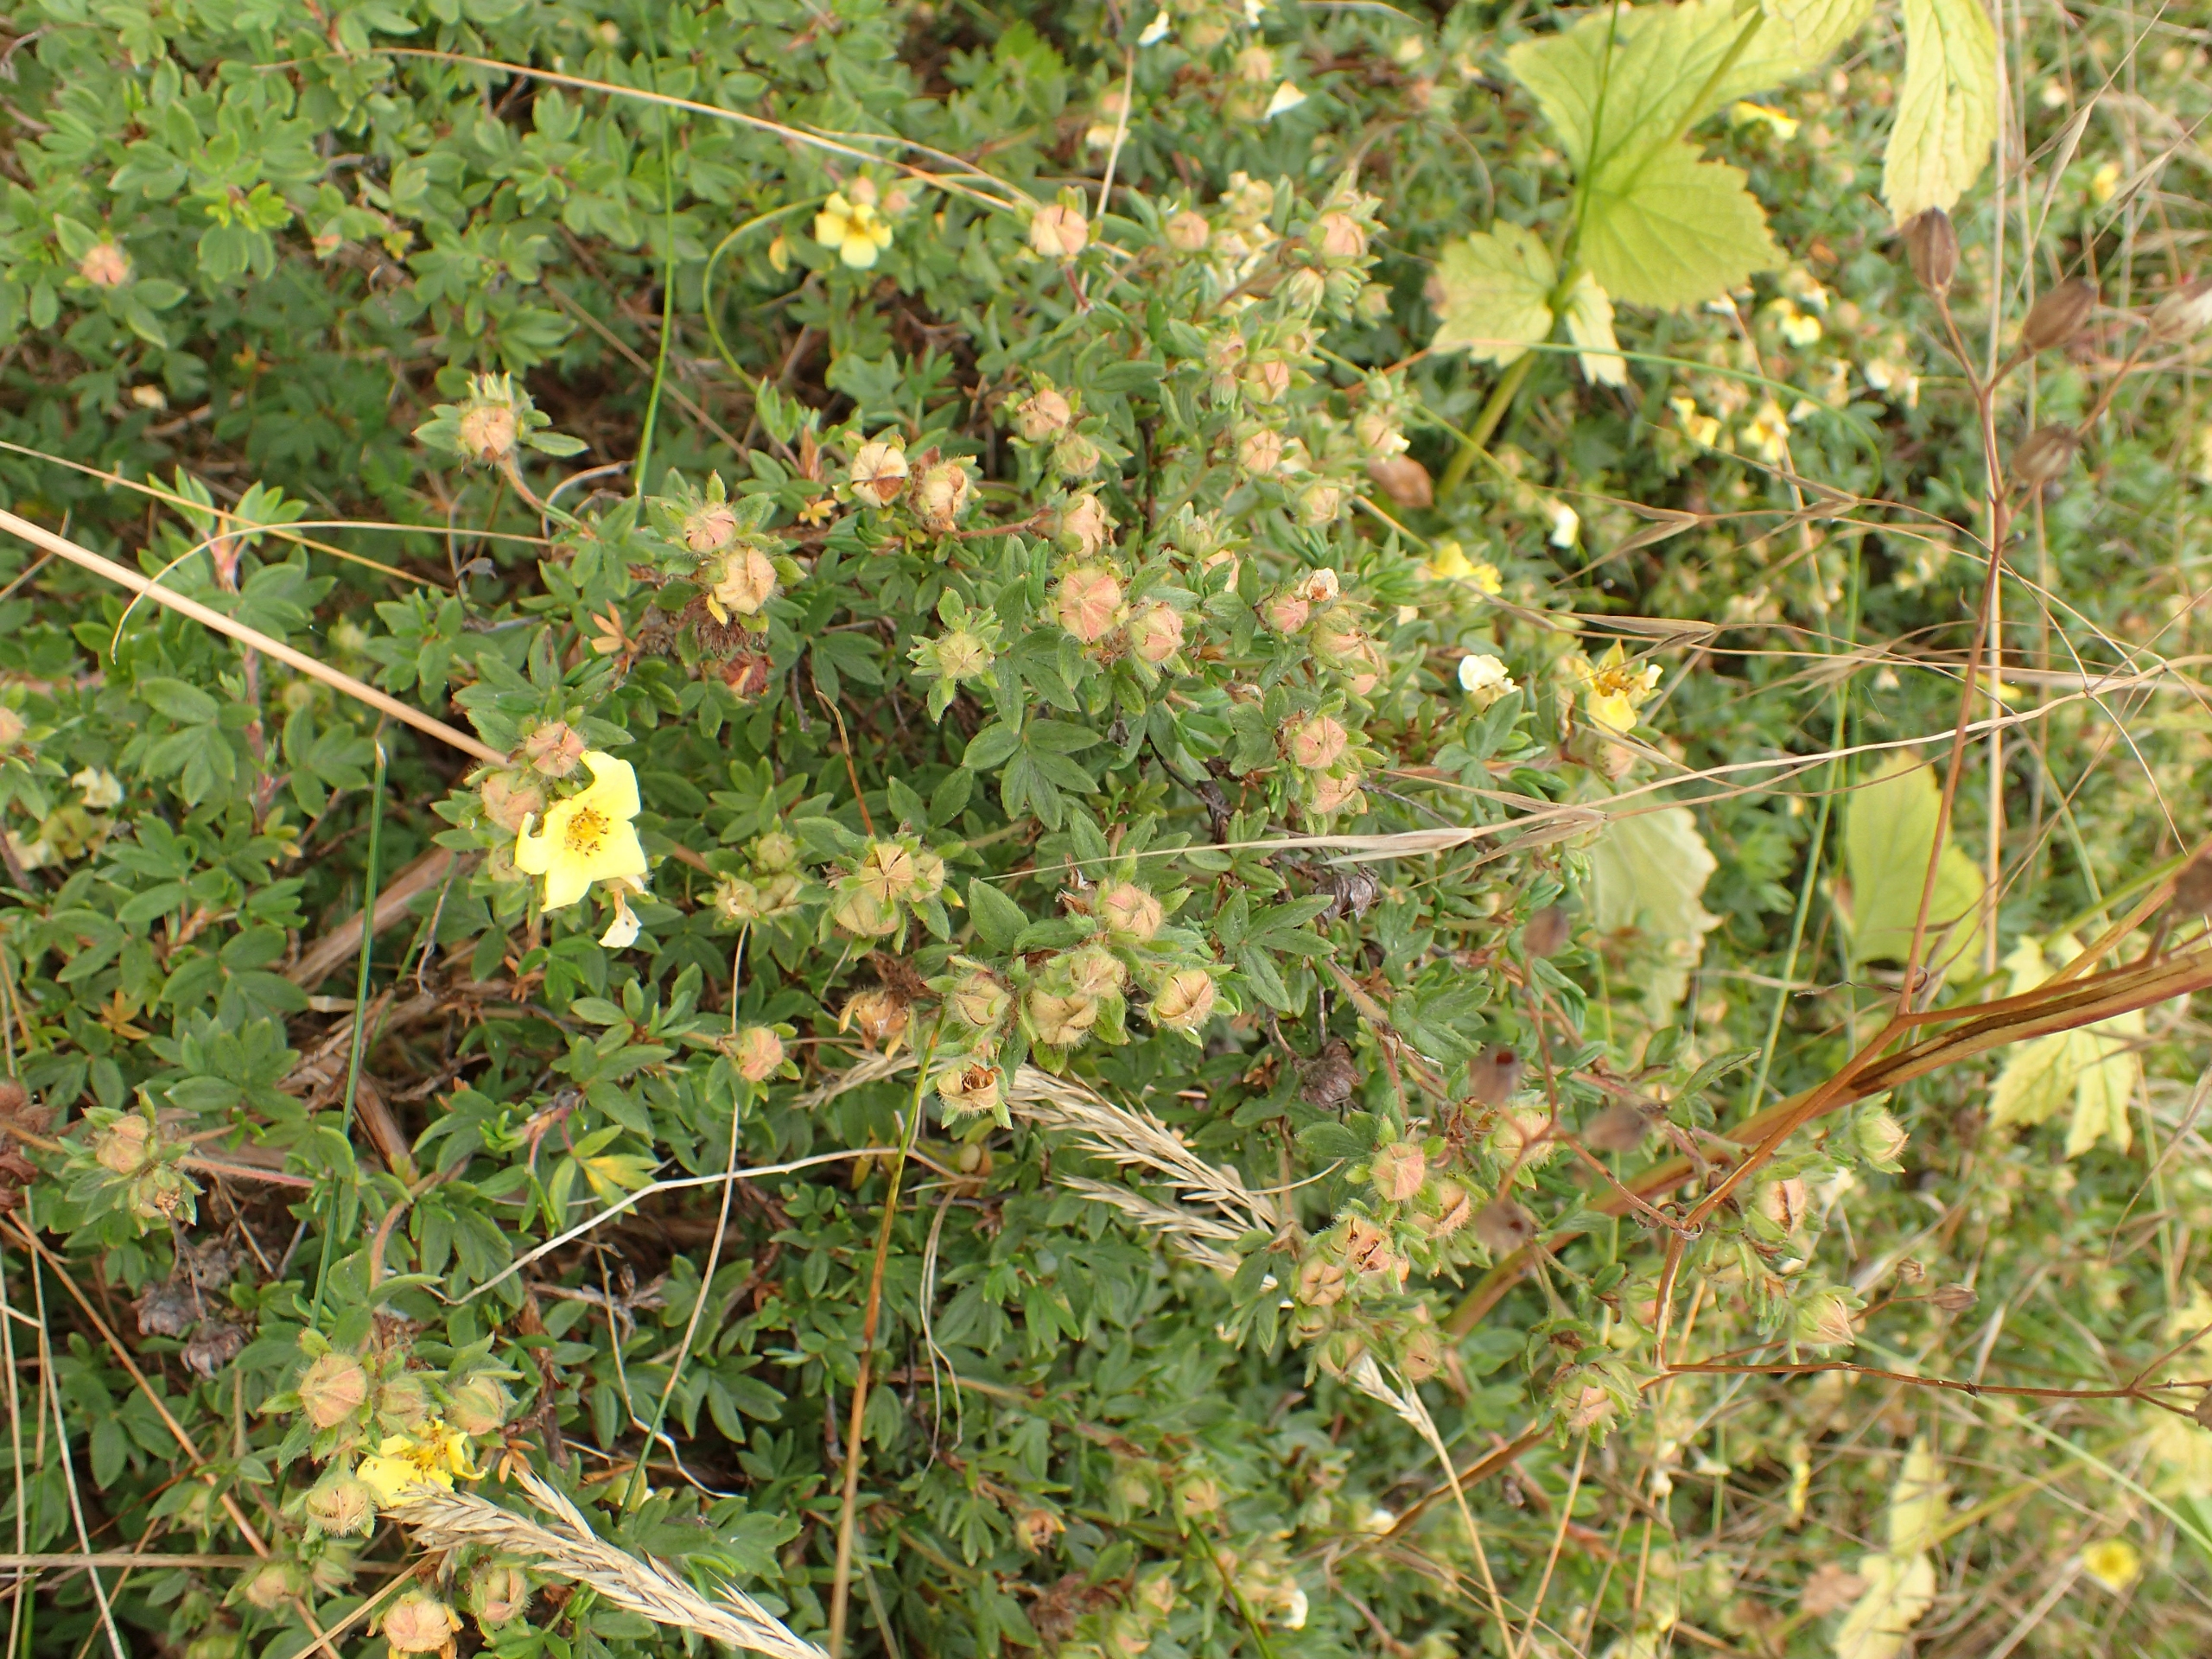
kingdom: Plantae
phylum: Tracheophyta
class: Magnoliopsida
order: Rosales
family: Rosaceae
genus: Dasiphora
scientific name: Dasiphora fruticosa
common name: Buskpotentil
